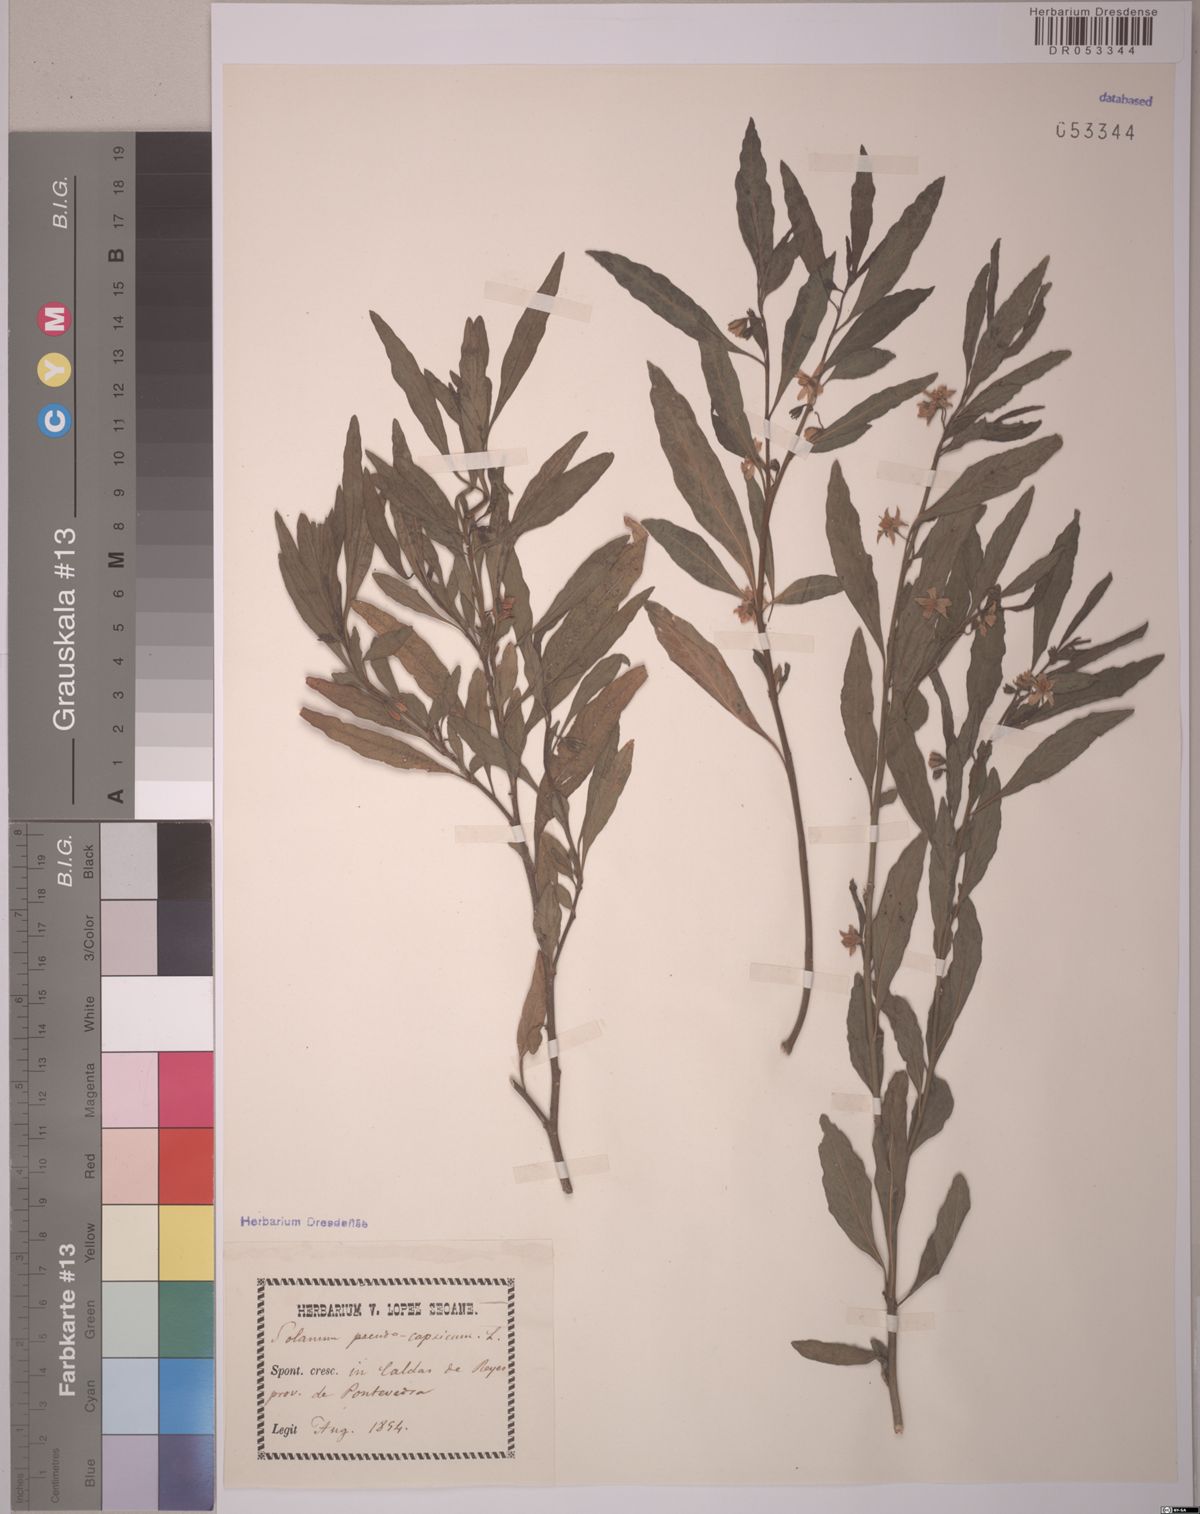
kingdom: Plantae
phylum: Tracheophyta
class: Magnoliopsida
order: Solanales
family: Solanaceae
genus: Solanum
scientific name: Solanum pseudocapsicum
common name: Jerusalem cherry
